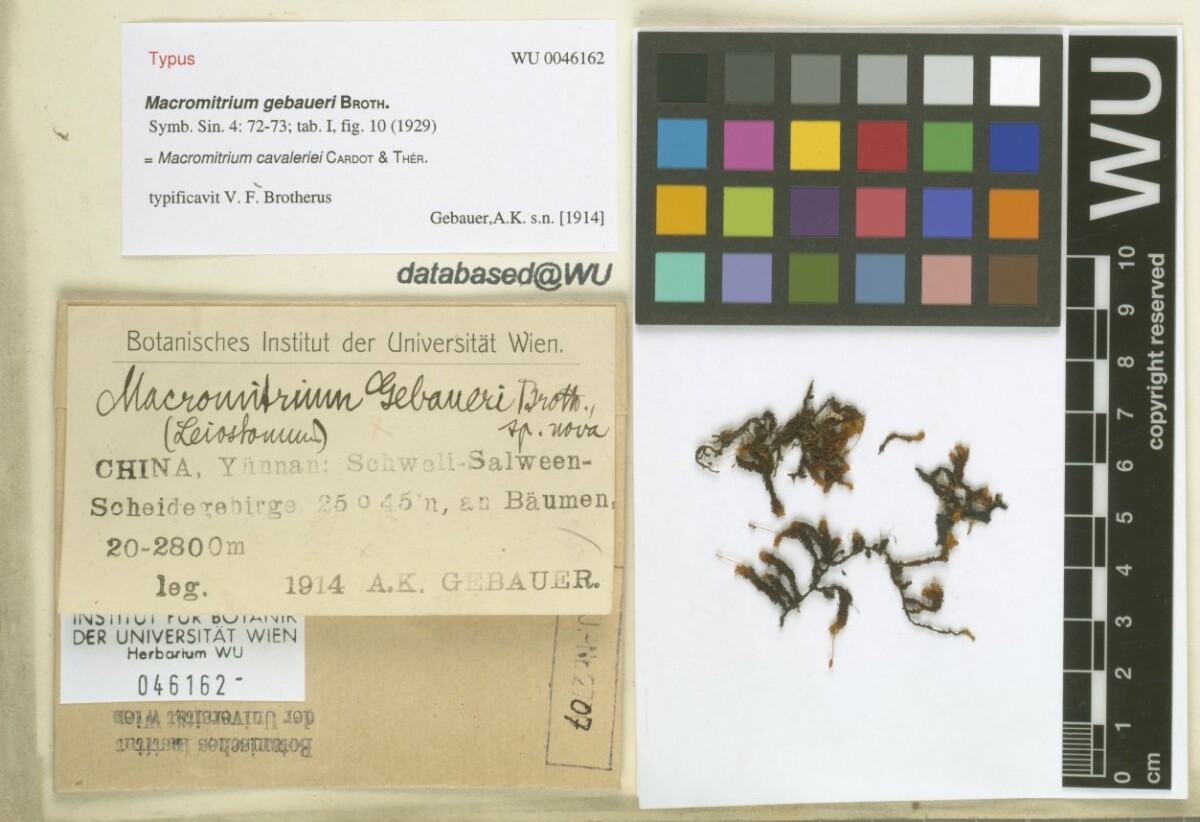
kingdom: Plantae
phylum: Bryophyta
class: Bryopsida
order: Orthotrichales
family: Orthotrichaceae
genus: Macromitrium
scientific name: Macromitrium cavaleriei
